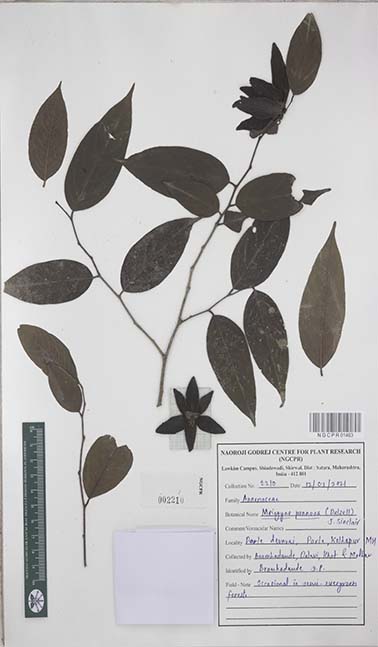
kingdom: Plantae
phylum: Tracheophyta
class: Magnoliopsida
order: Magnoliales
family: Annonaceae
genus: Meiogyne
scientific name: Meiogyne pannosa
